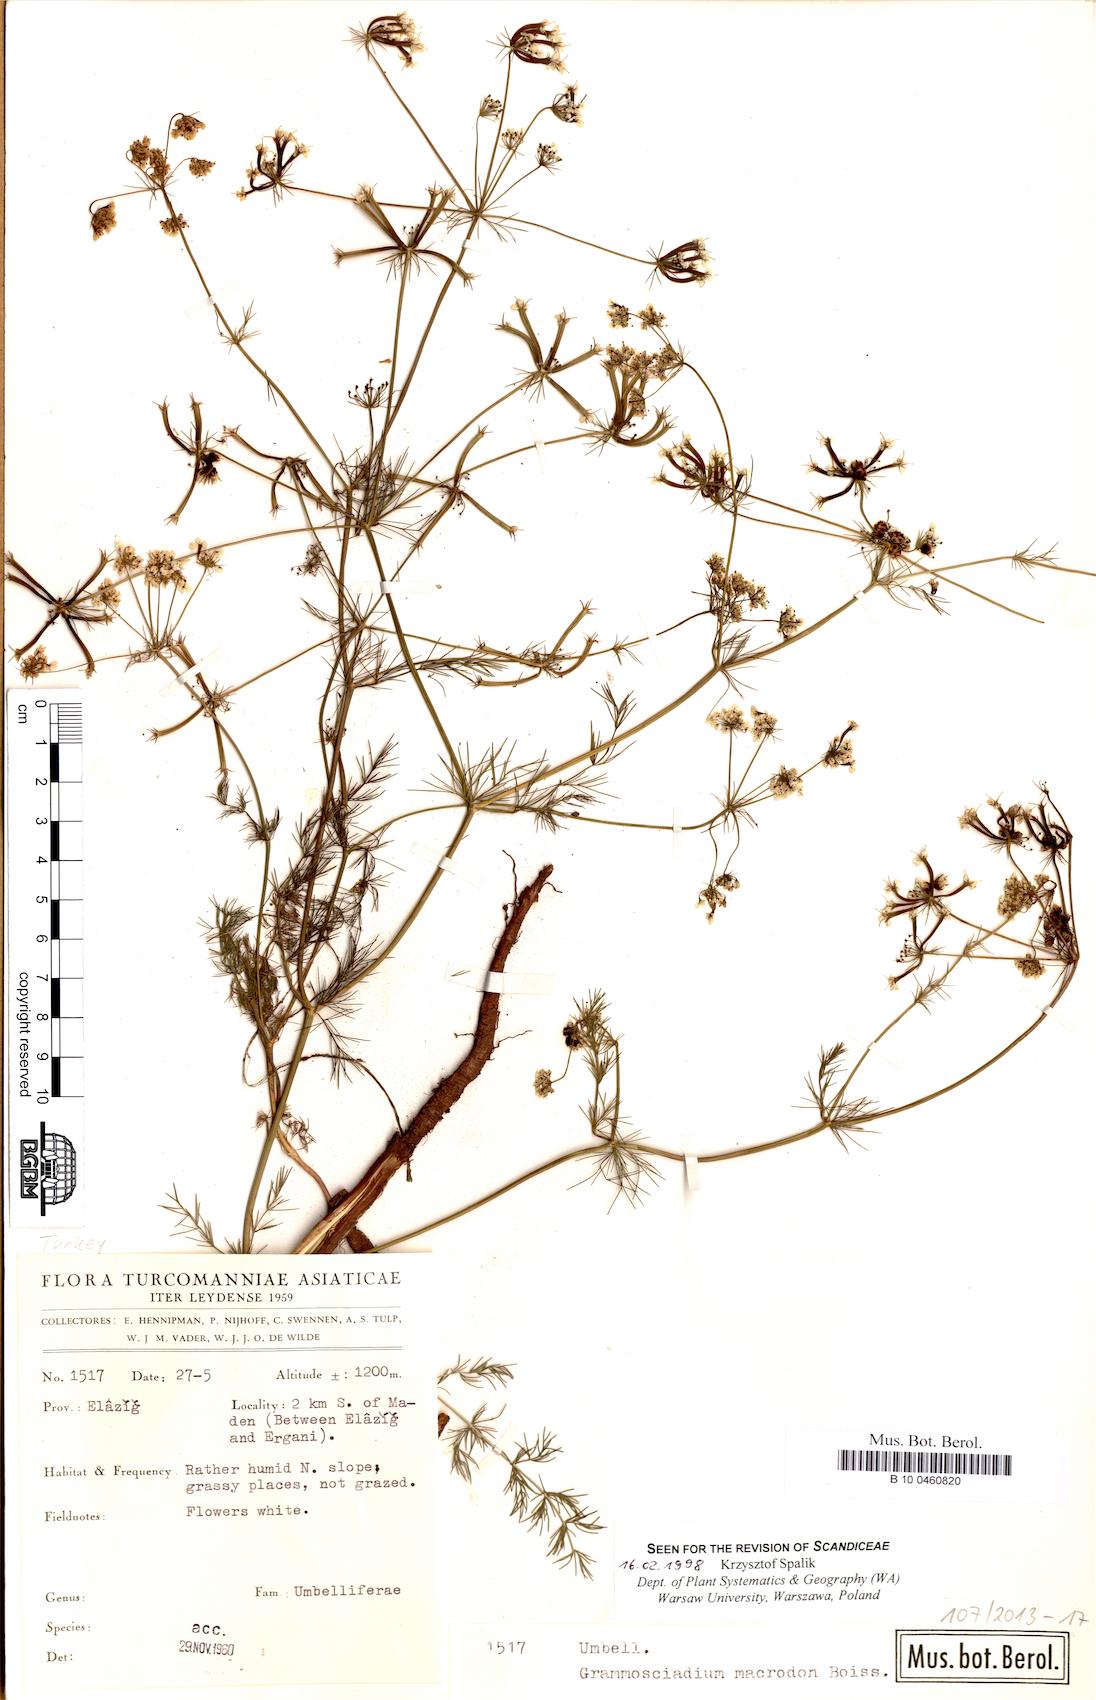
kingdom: Plantae
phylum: Tracheophyta
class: Magnoliopsida
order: Apiales
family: Apiaceae
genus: Grammosciadium
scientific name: Grammosciadium macrodon
